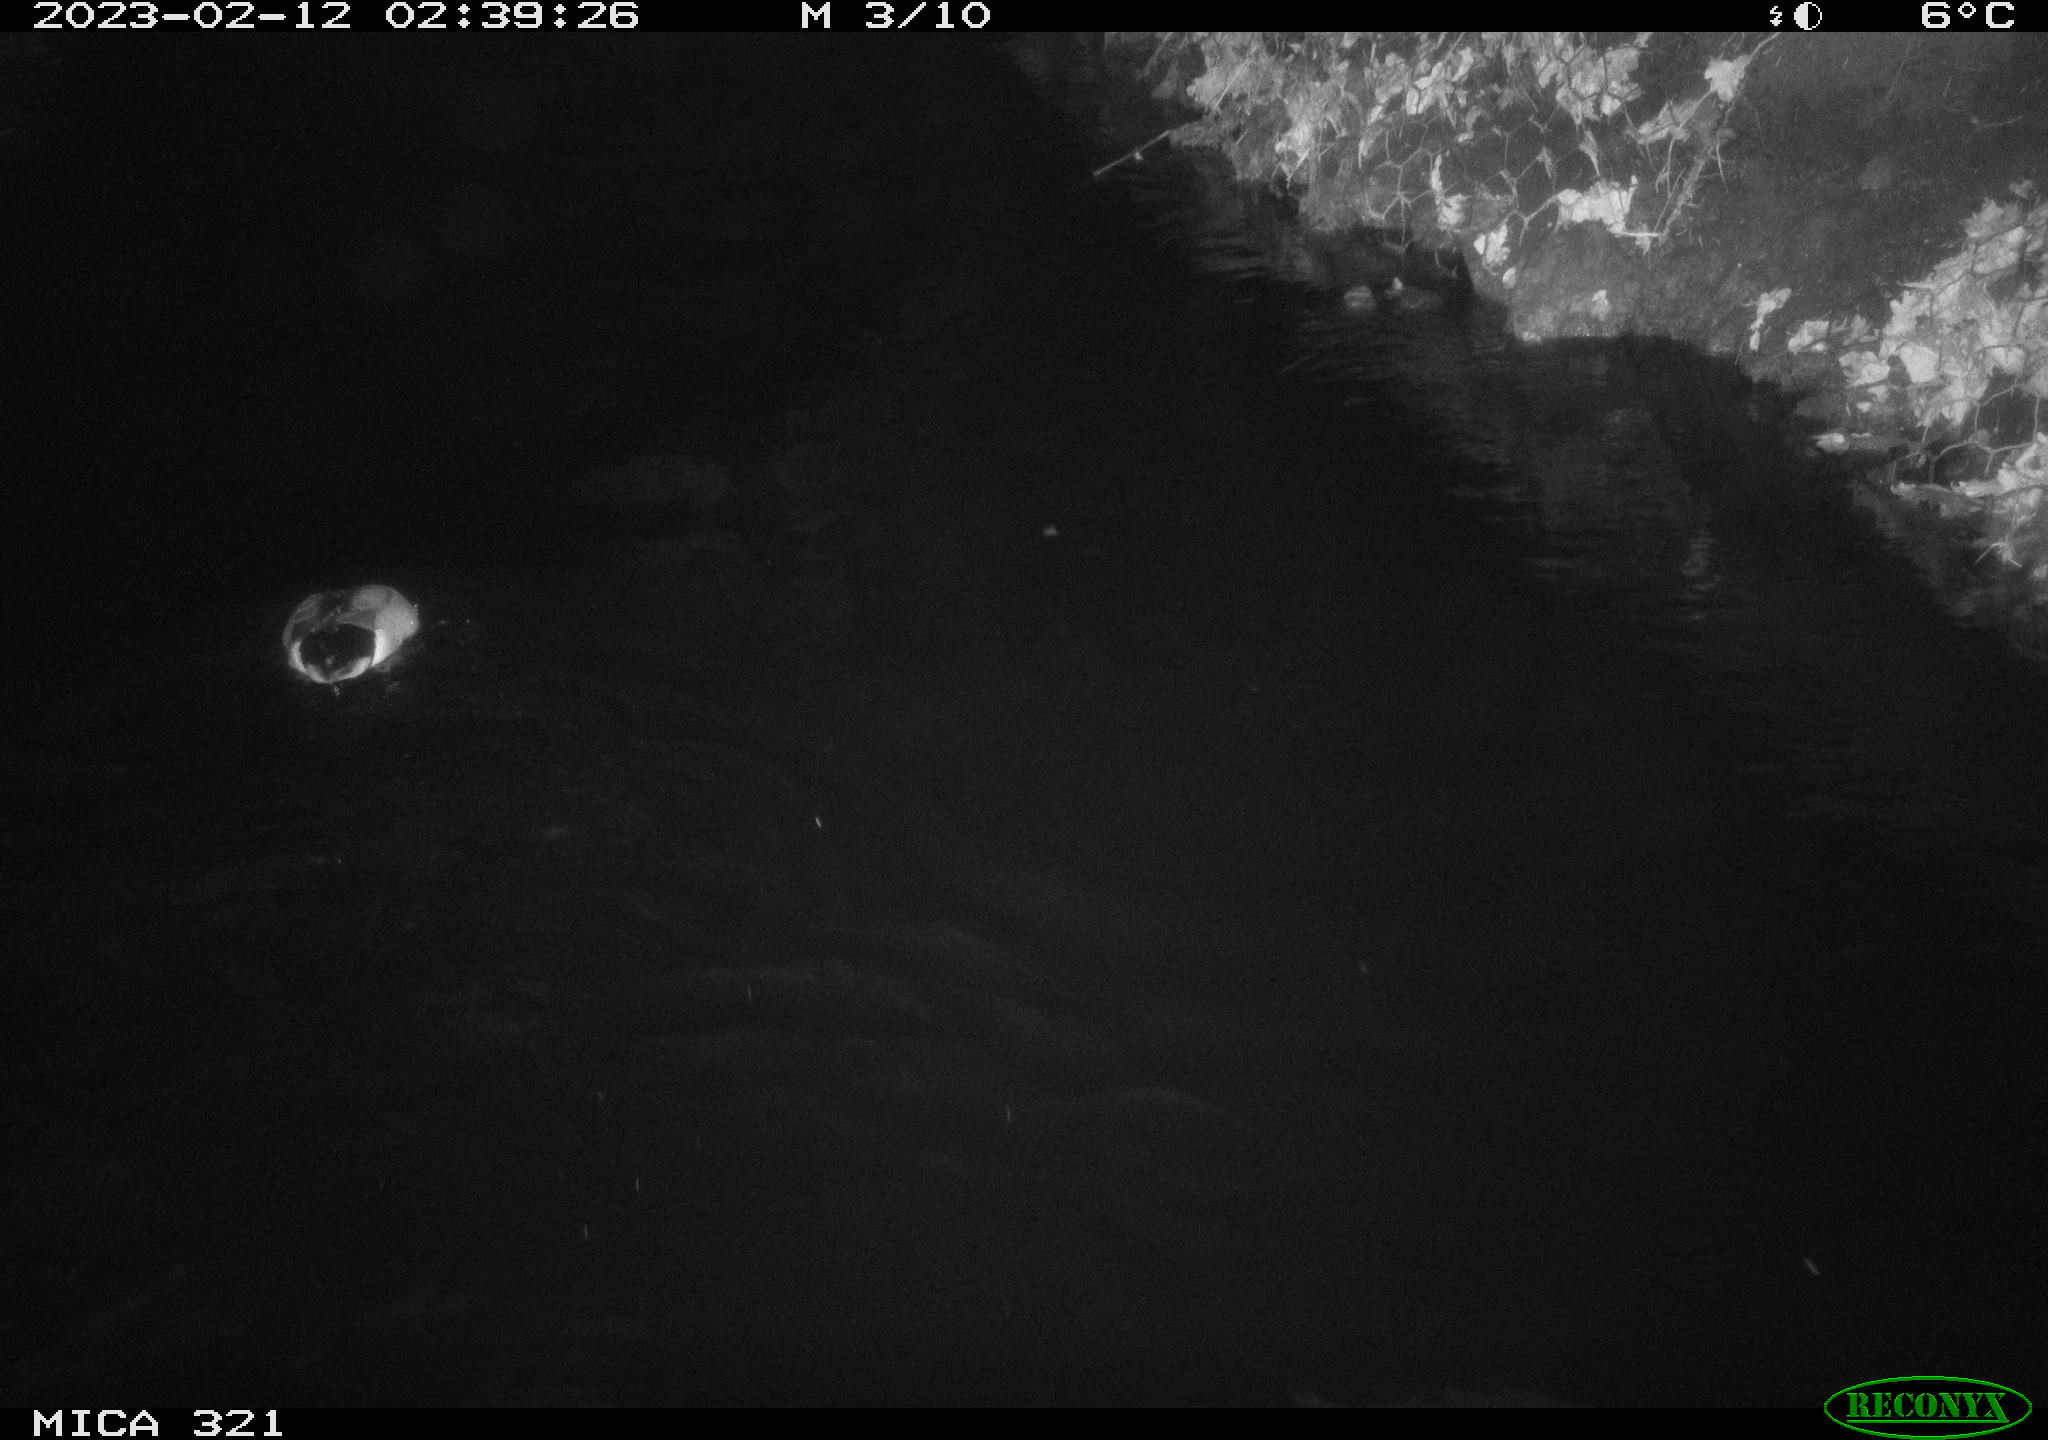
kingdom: Animalia
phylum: Chordata
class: Aves
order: Anseriformes
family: Anatidae
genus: Anas
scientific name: Anas
